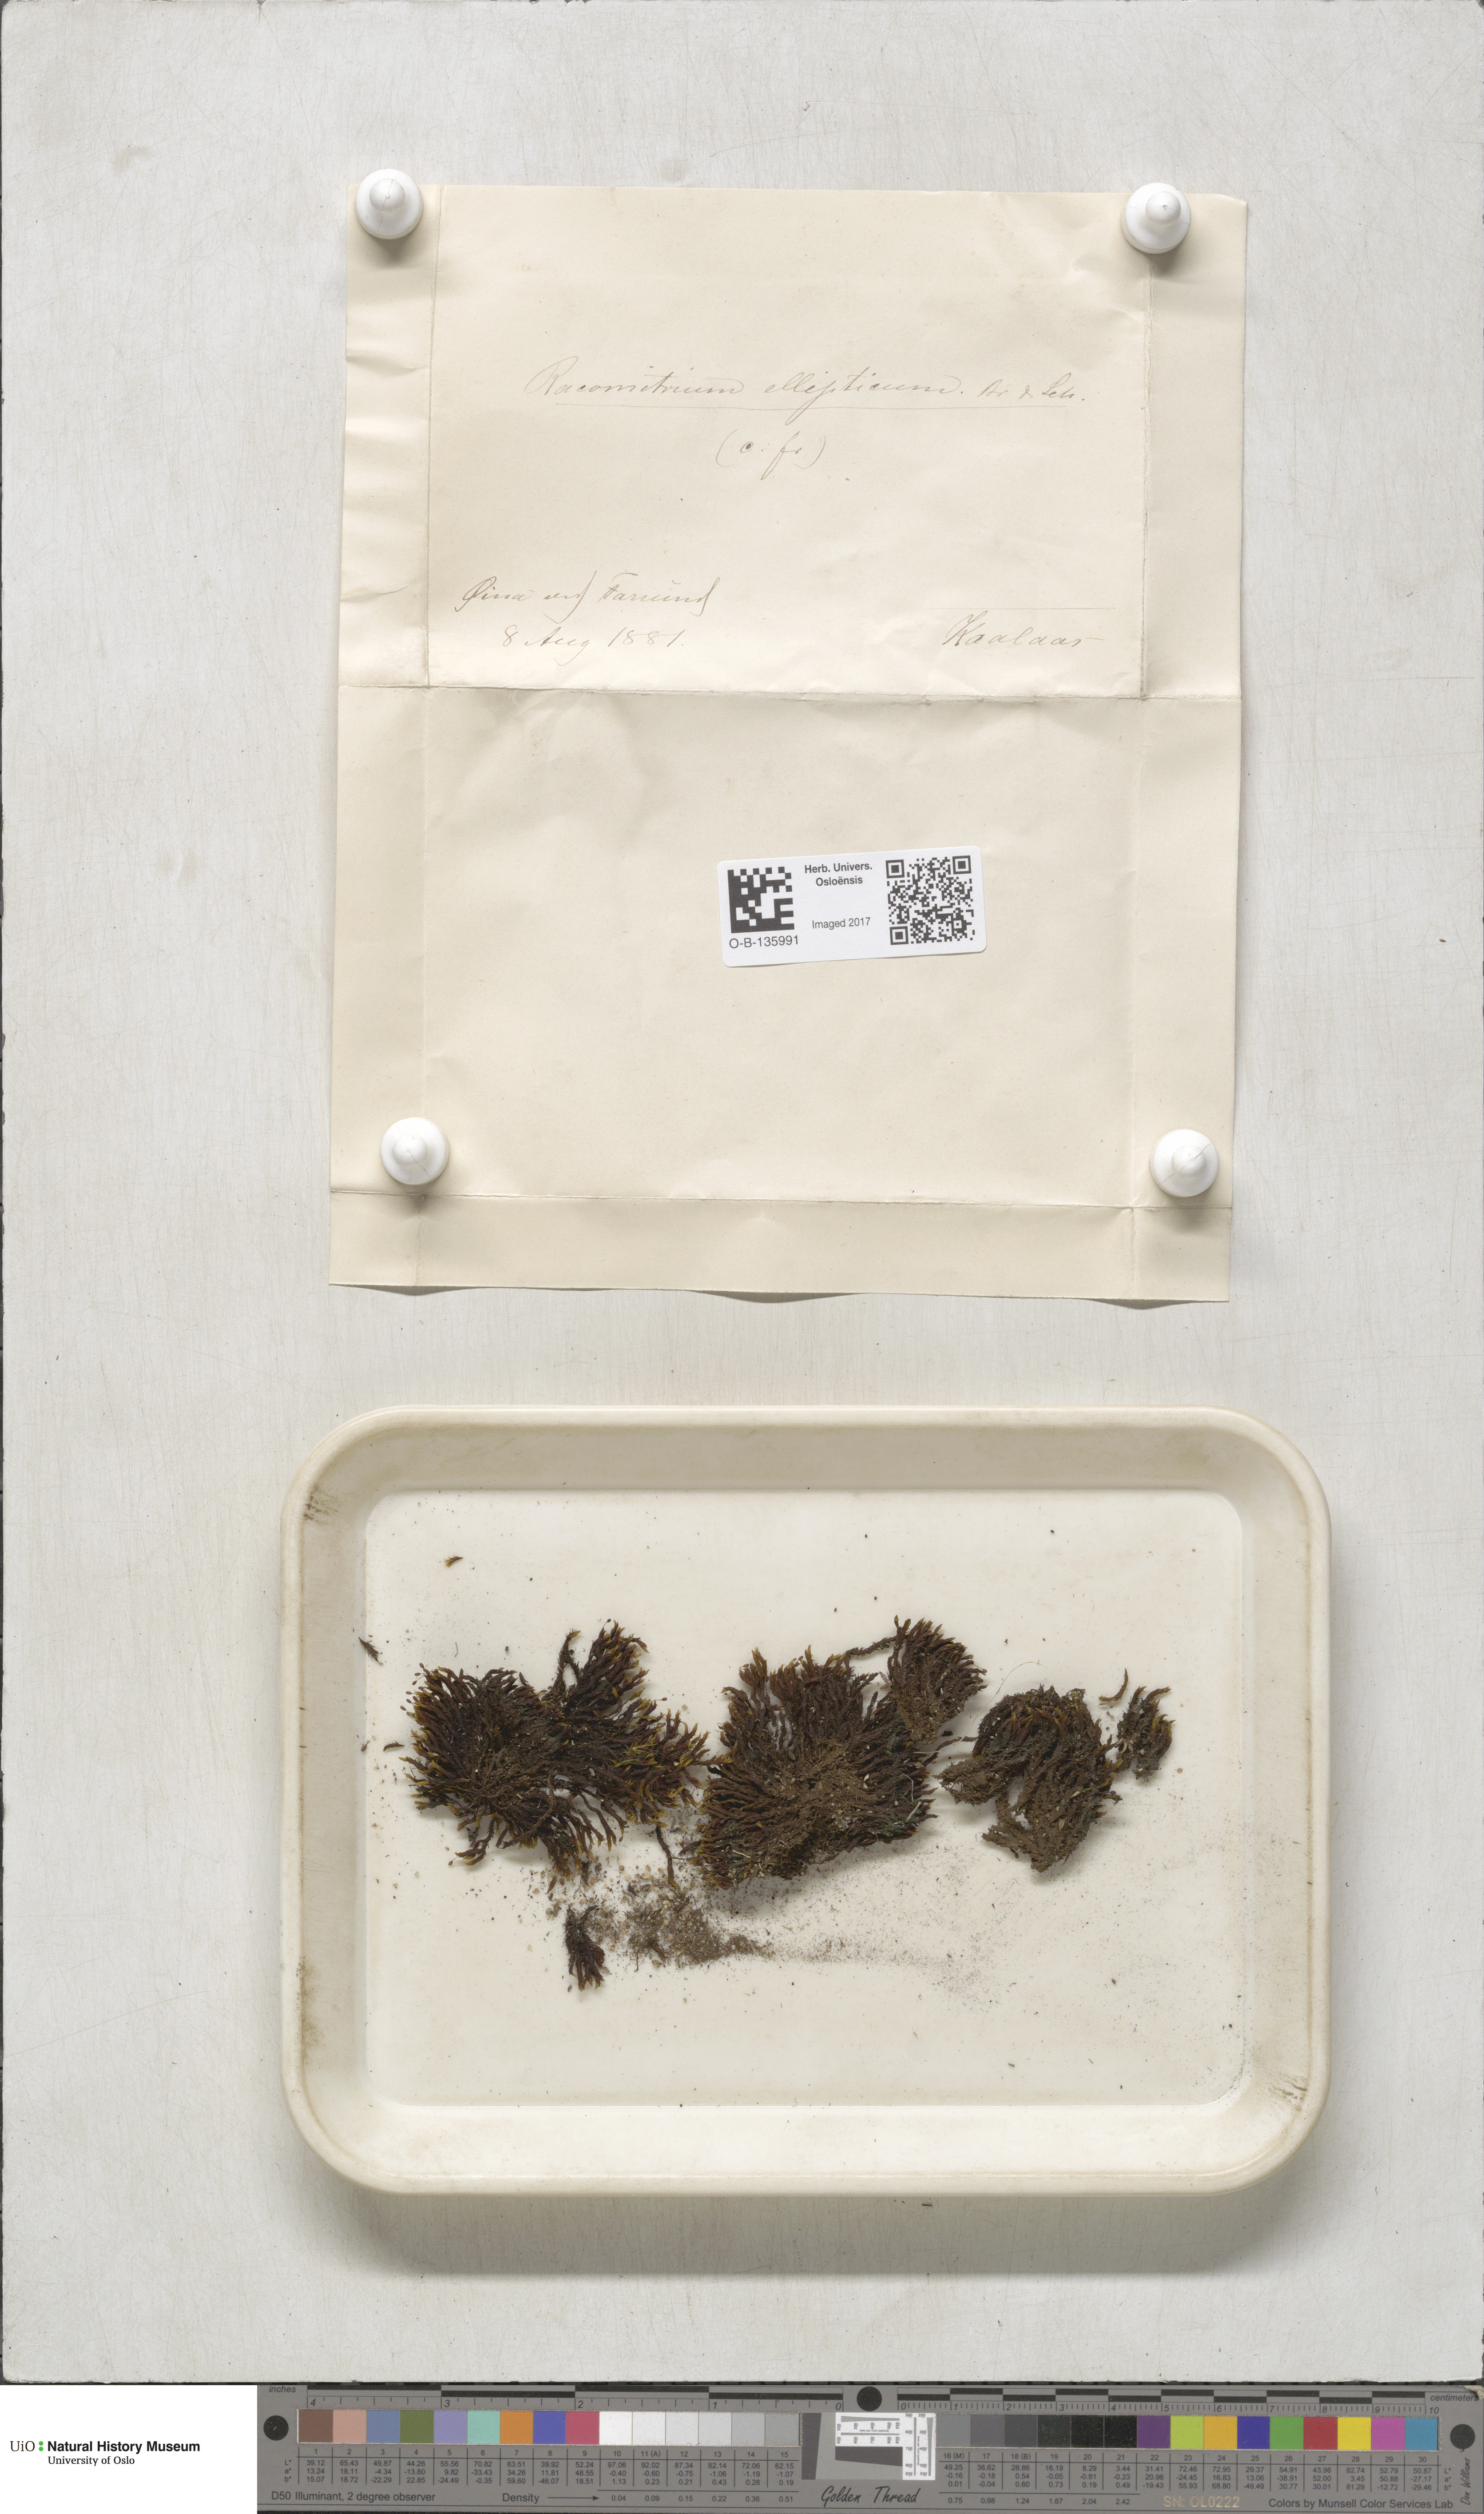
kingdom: Plantae
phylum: Bryophyta
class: Bryopsida
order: Grimmiales
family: Grimmiaceae
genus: Bucklandiella
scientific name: Bucklandiella elliptica
